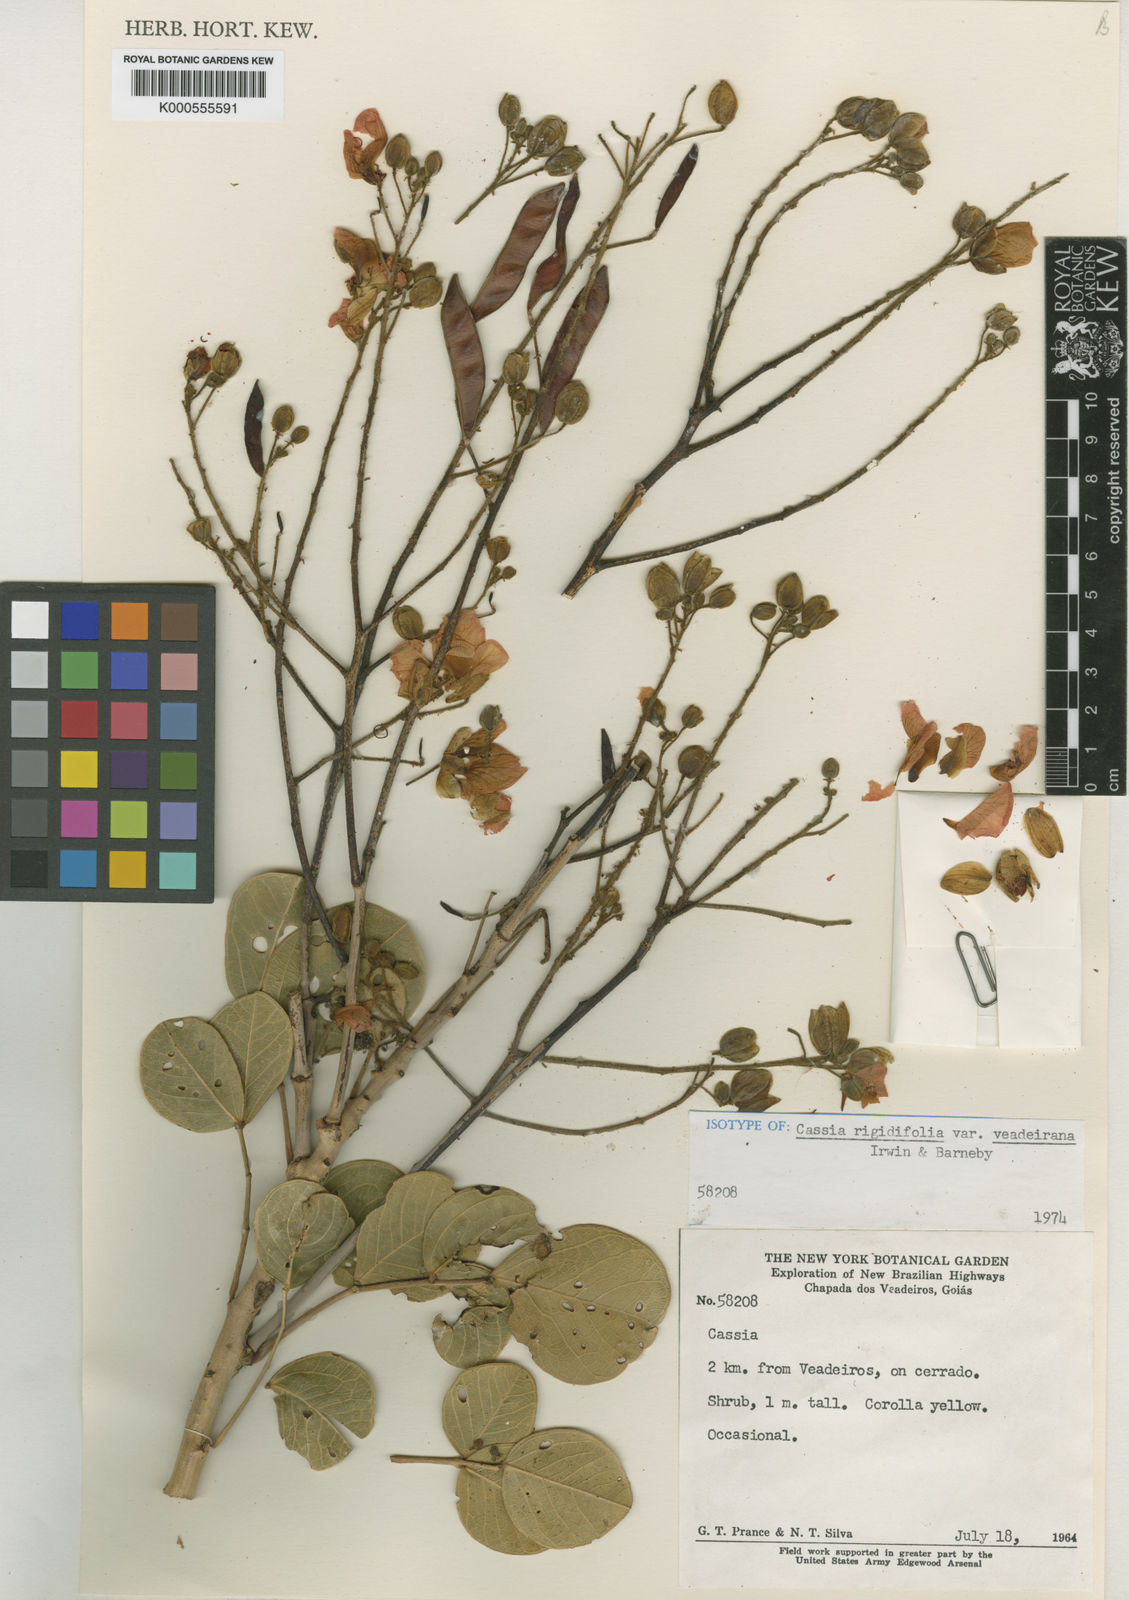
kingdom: Plantae
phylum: Tracheophyta
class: Magnoliopsida
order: Fabales
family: Fabaceae
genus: Chamaecrista
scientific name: Chamaecrista veadeirana
